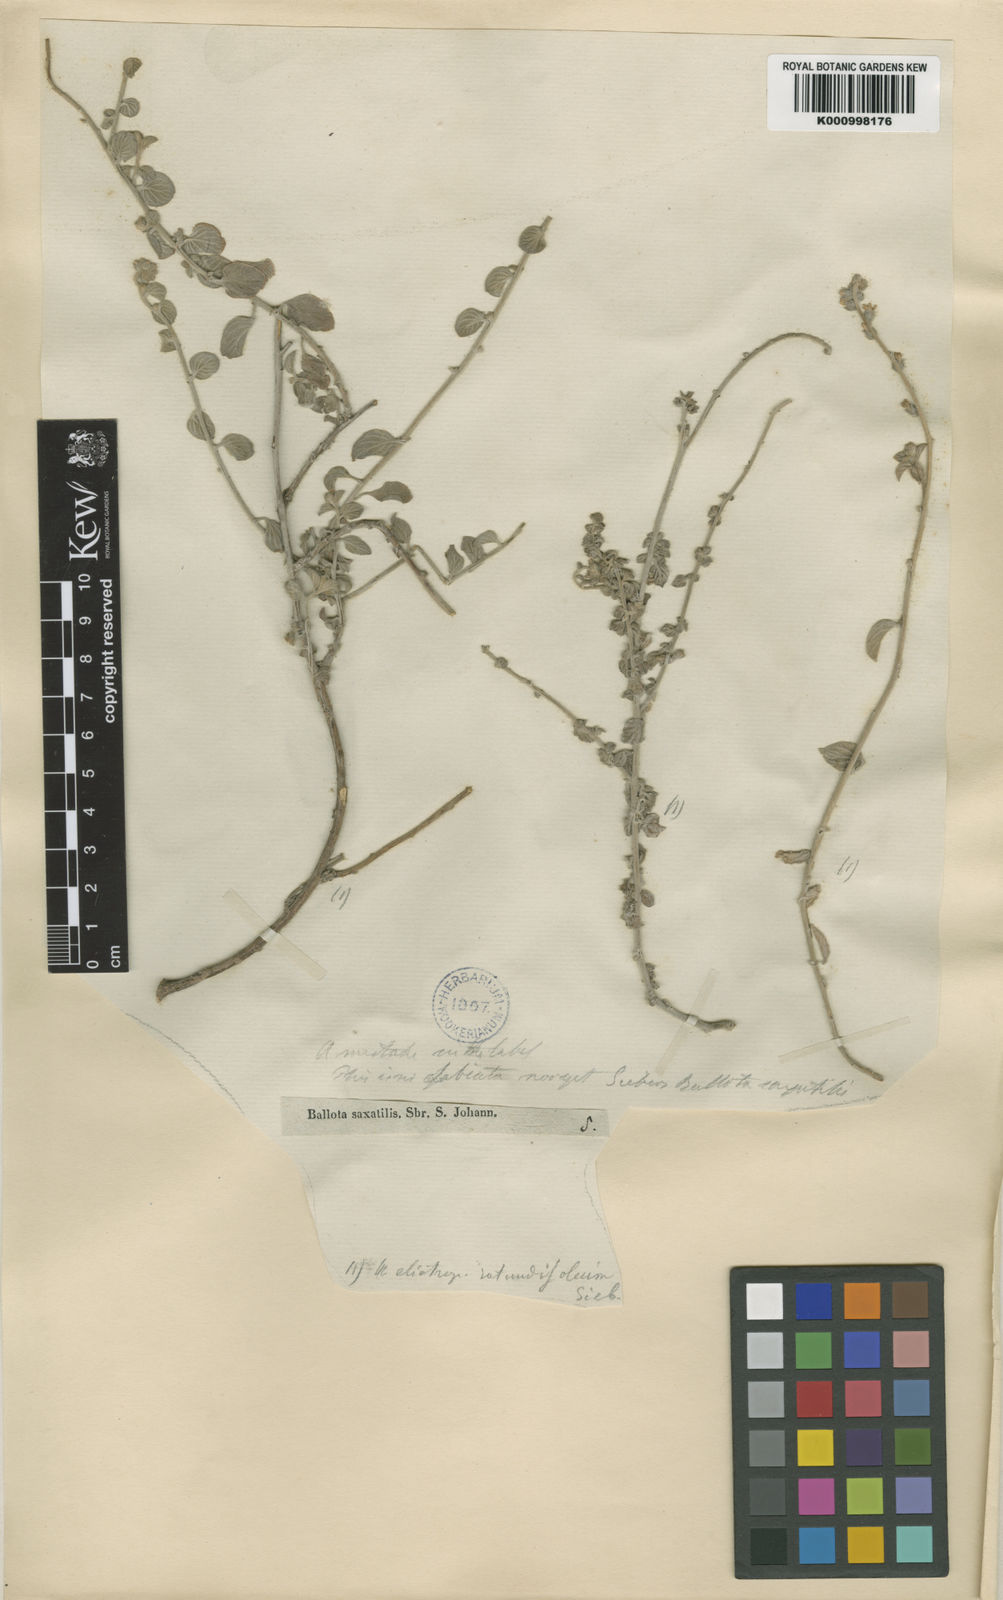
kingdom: Plantae
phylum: Tracheophyta
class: Magnoliopsida
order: Boraginales
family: Heliotropiaceae
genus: Heliotropium
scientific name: Heliotropium rotundifolium
